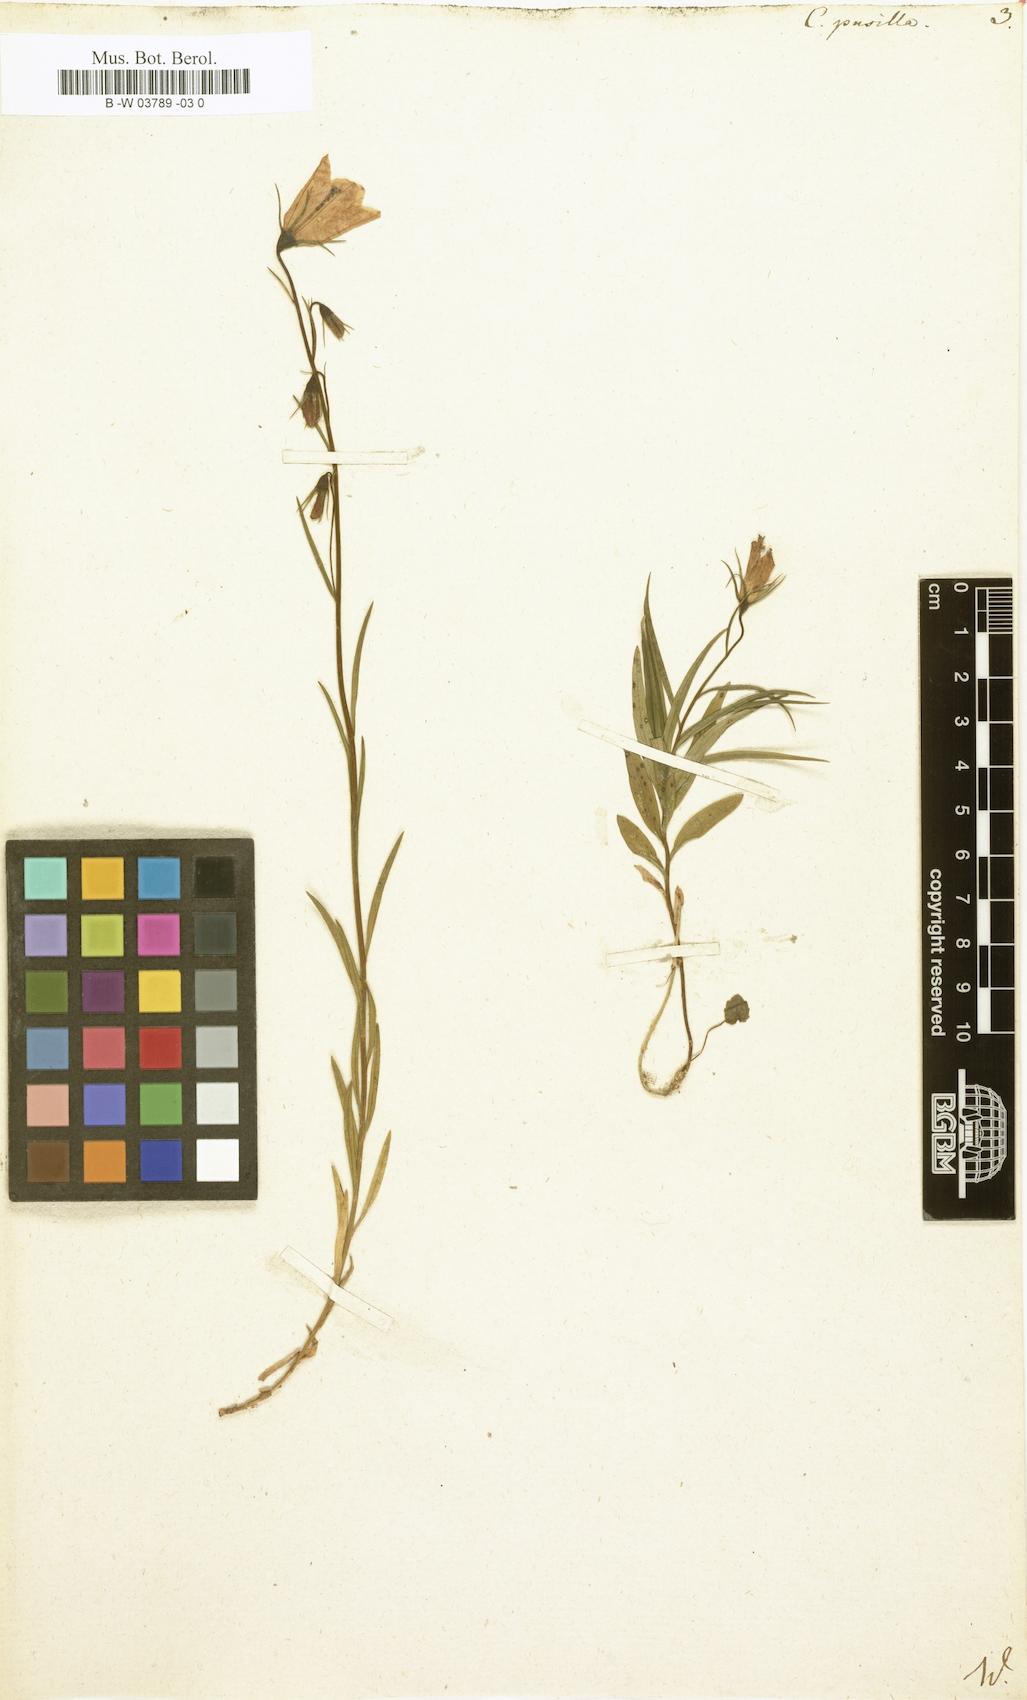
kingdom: Plantae
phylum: Tracheophyta
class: Magnoliopsida
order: Asterales
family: Campanulaceae
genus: Campanula
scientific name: Campanula cochleariifolia
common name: Fairies'-thimbles
